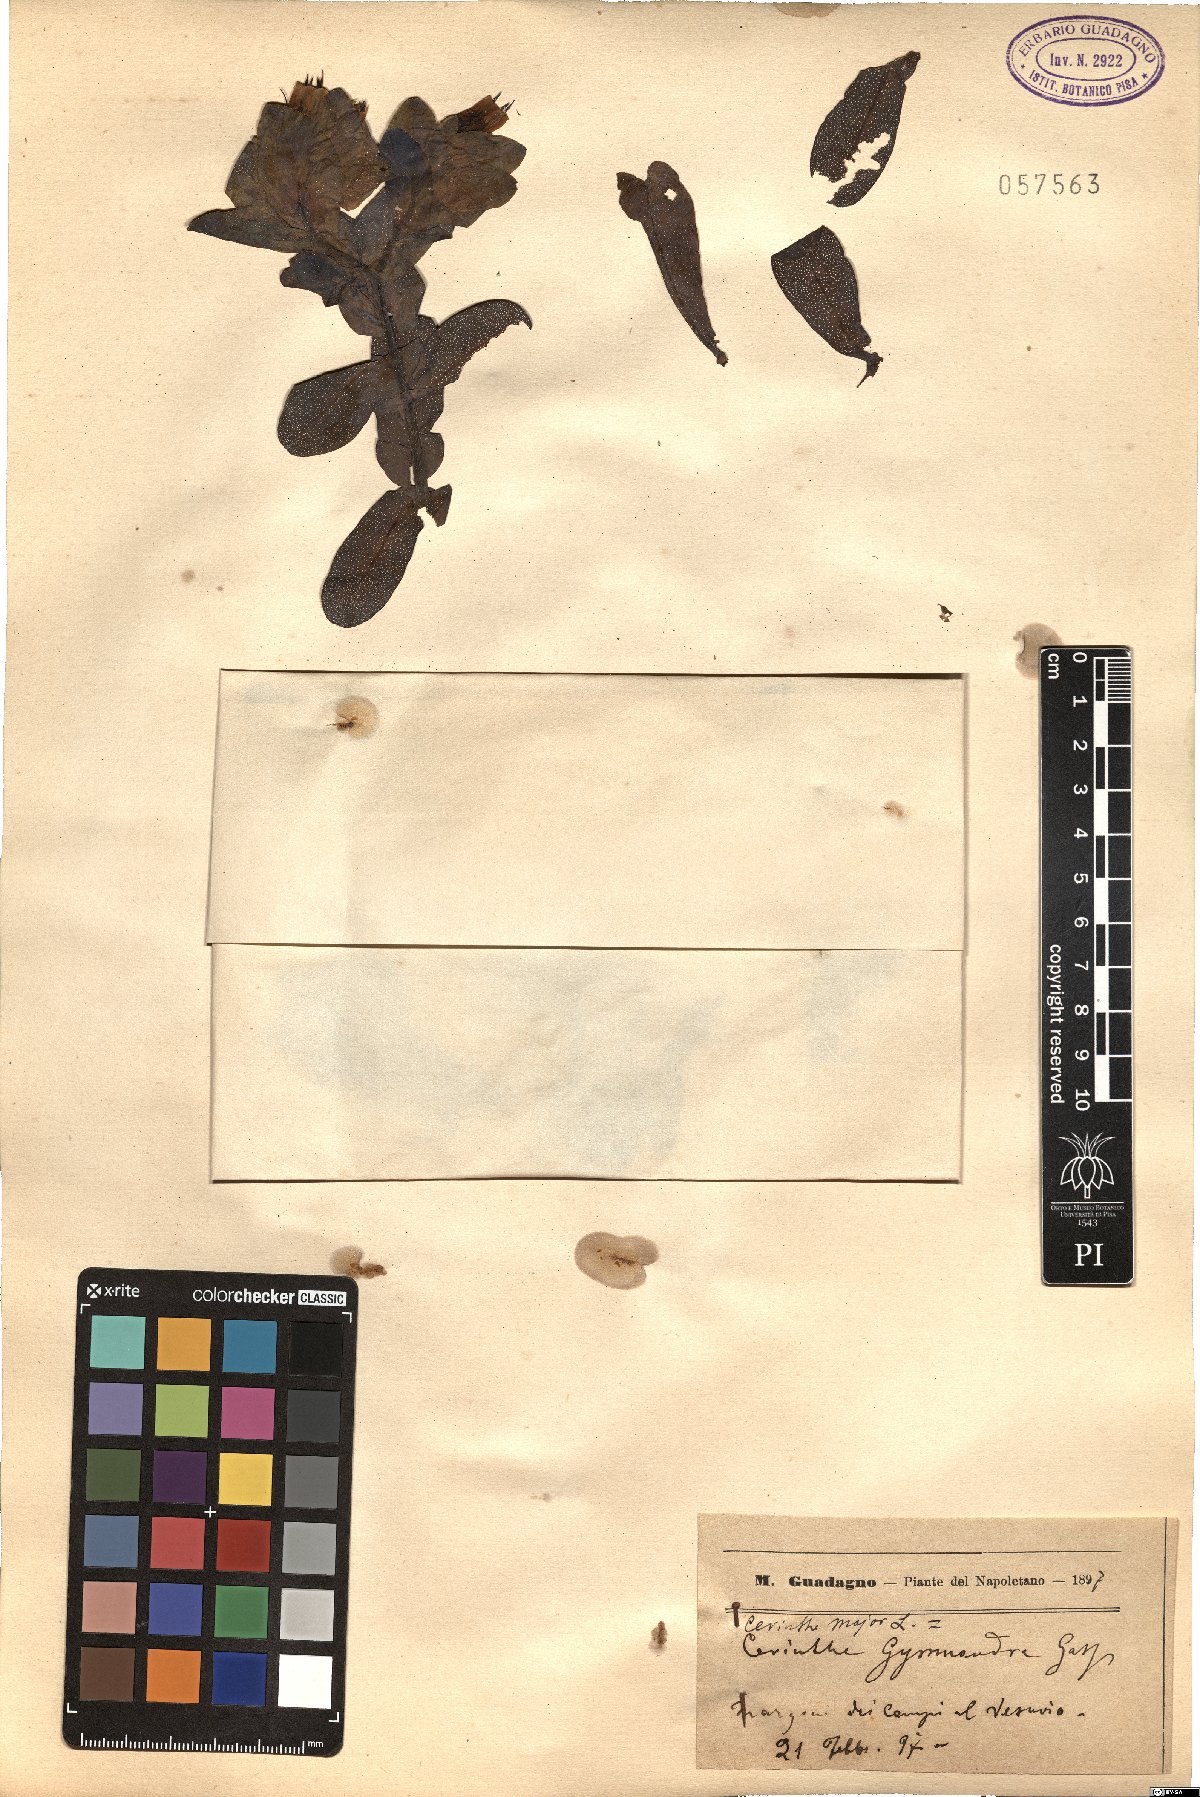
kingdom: Plantae
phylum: Tracheophyta
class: Magnoliopsida
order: Boraginales
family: Boraginaceae
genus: Cerinthe
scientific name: Cerinthe major
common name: Greater honeywort
